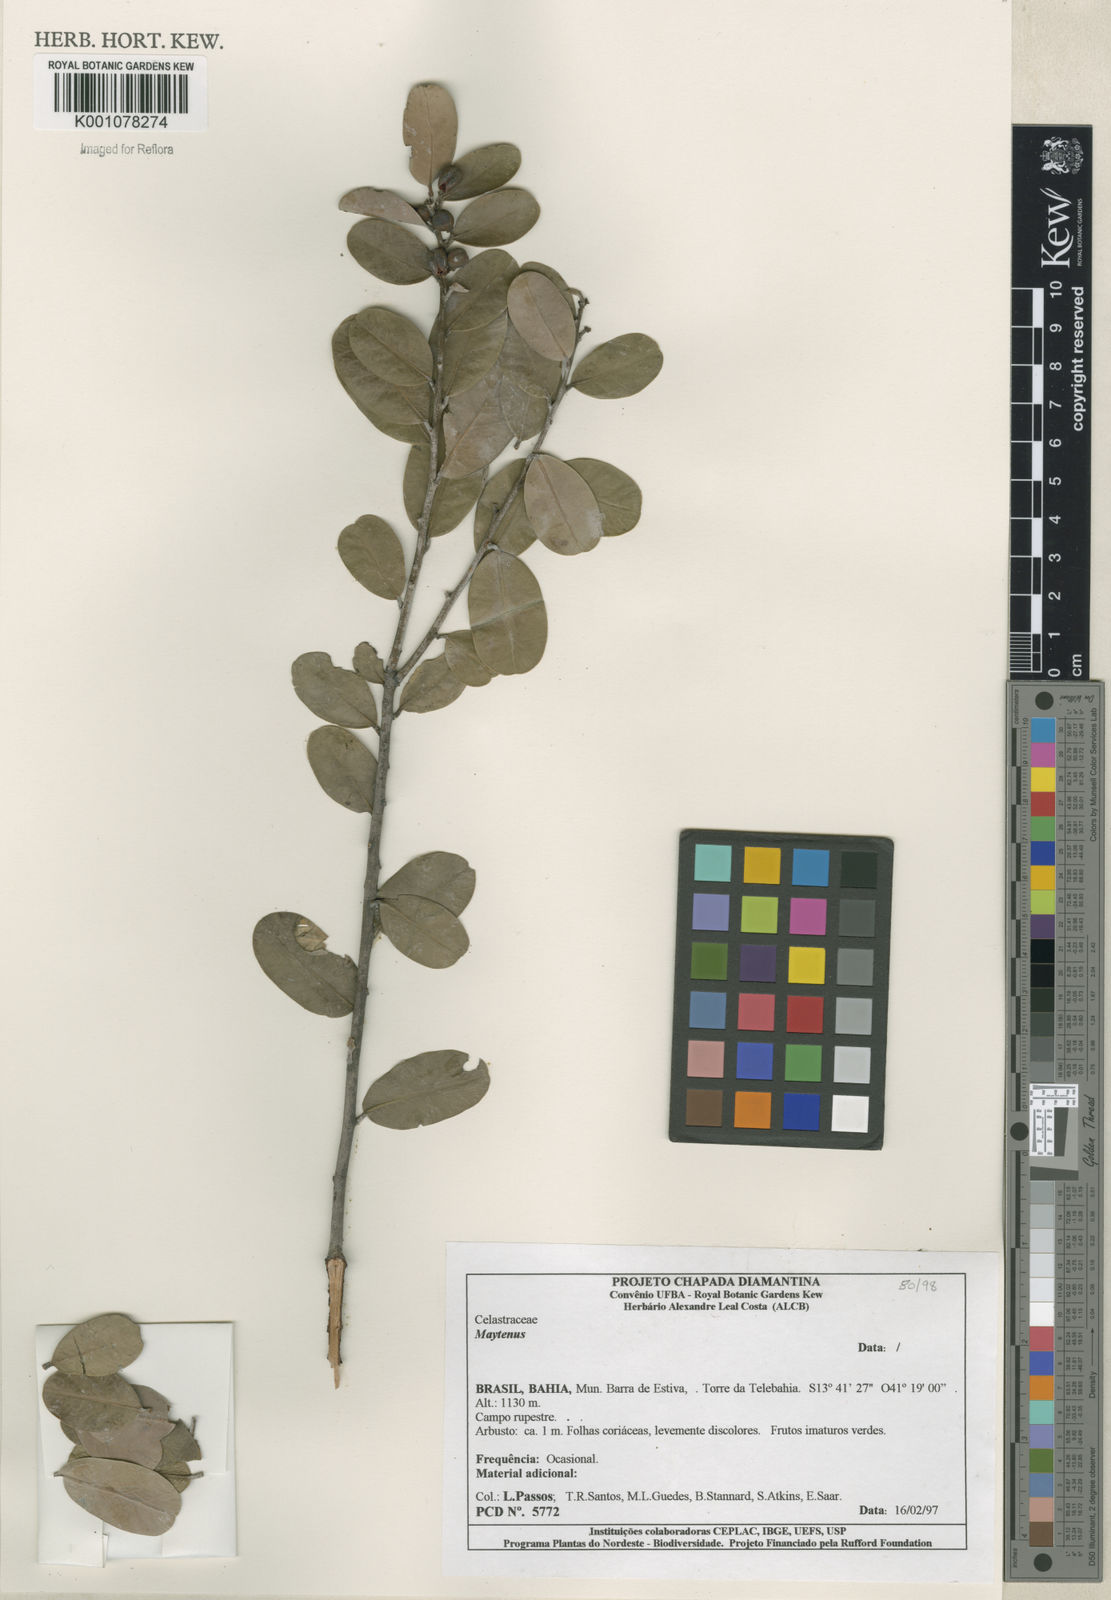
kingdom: Plantae
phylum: Tracheophyta
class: Magnoliopsida
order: Celastrales
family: Celastraceae
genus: Maytenus
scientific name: Maytenus
